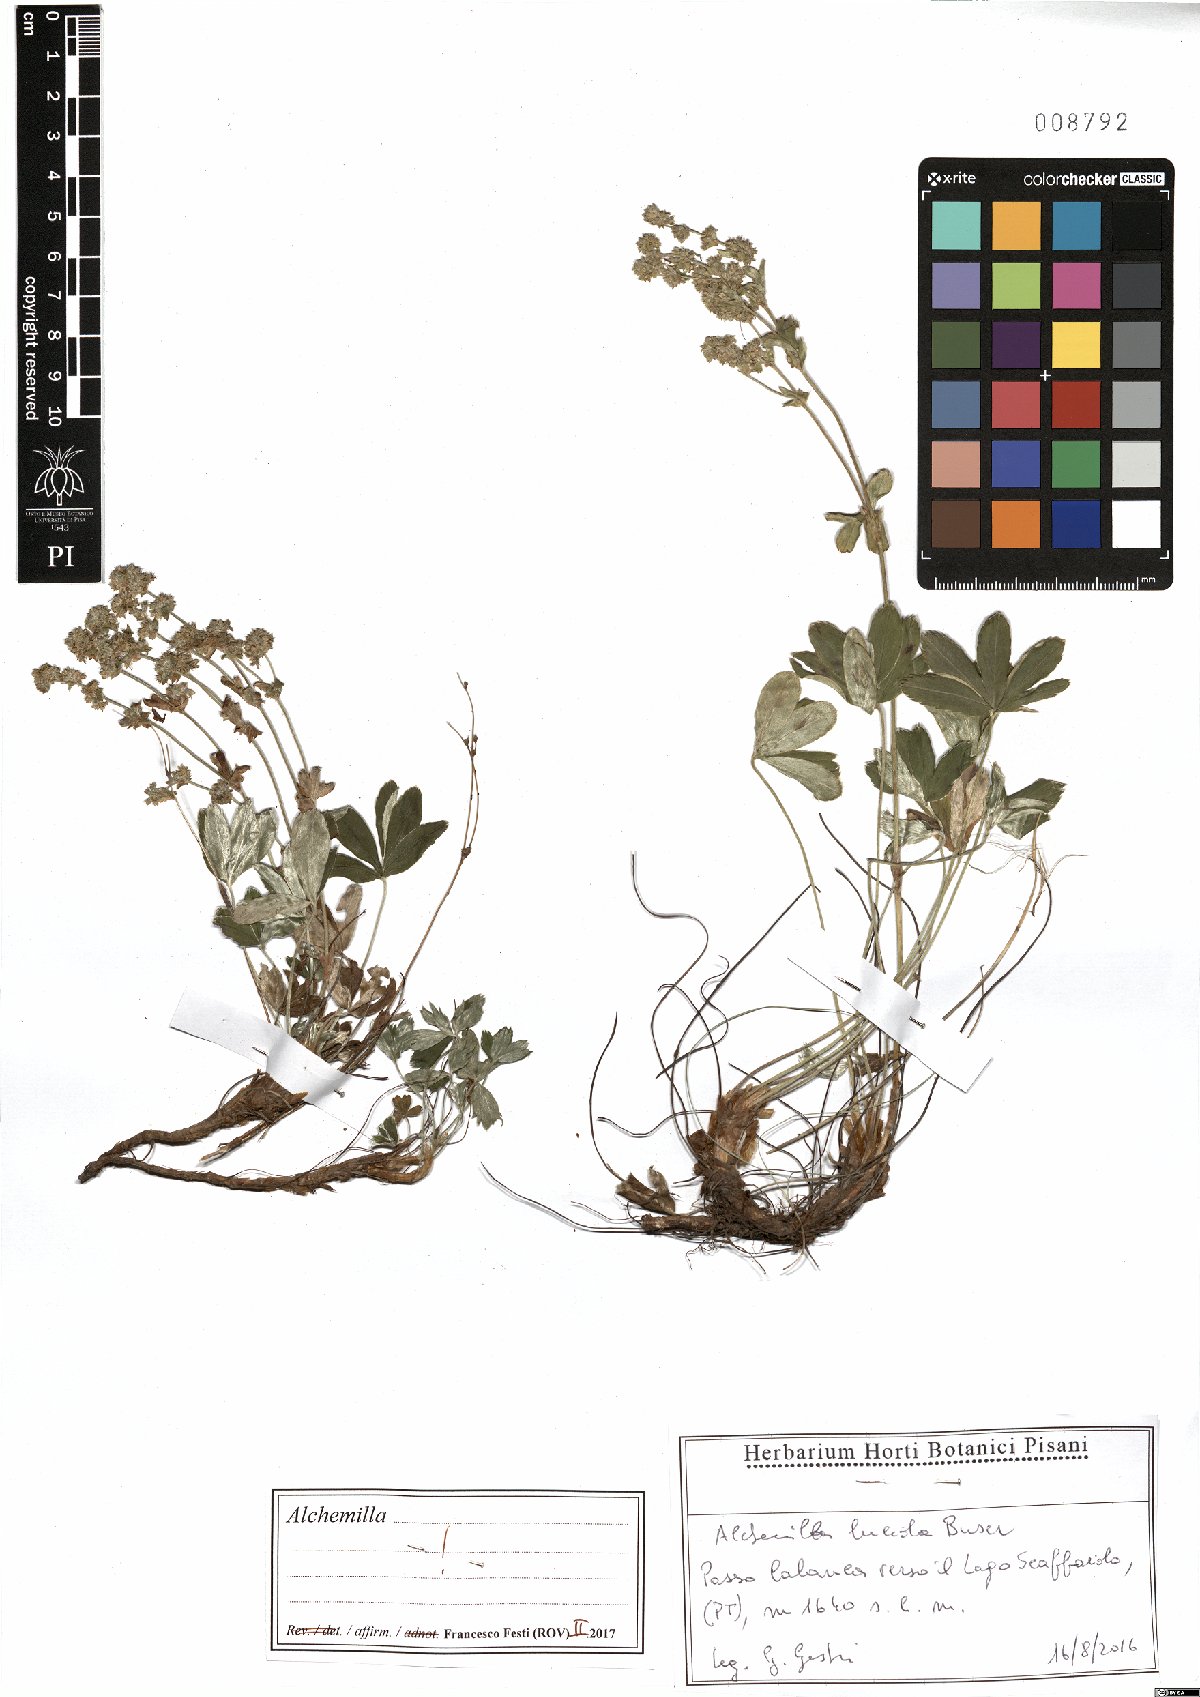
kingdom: Plantae
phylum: Tracheophyta
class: Magnoliopsida
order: Rosales
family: Rosaceae
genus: Alchemilla
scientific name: Alchemilla lucida
